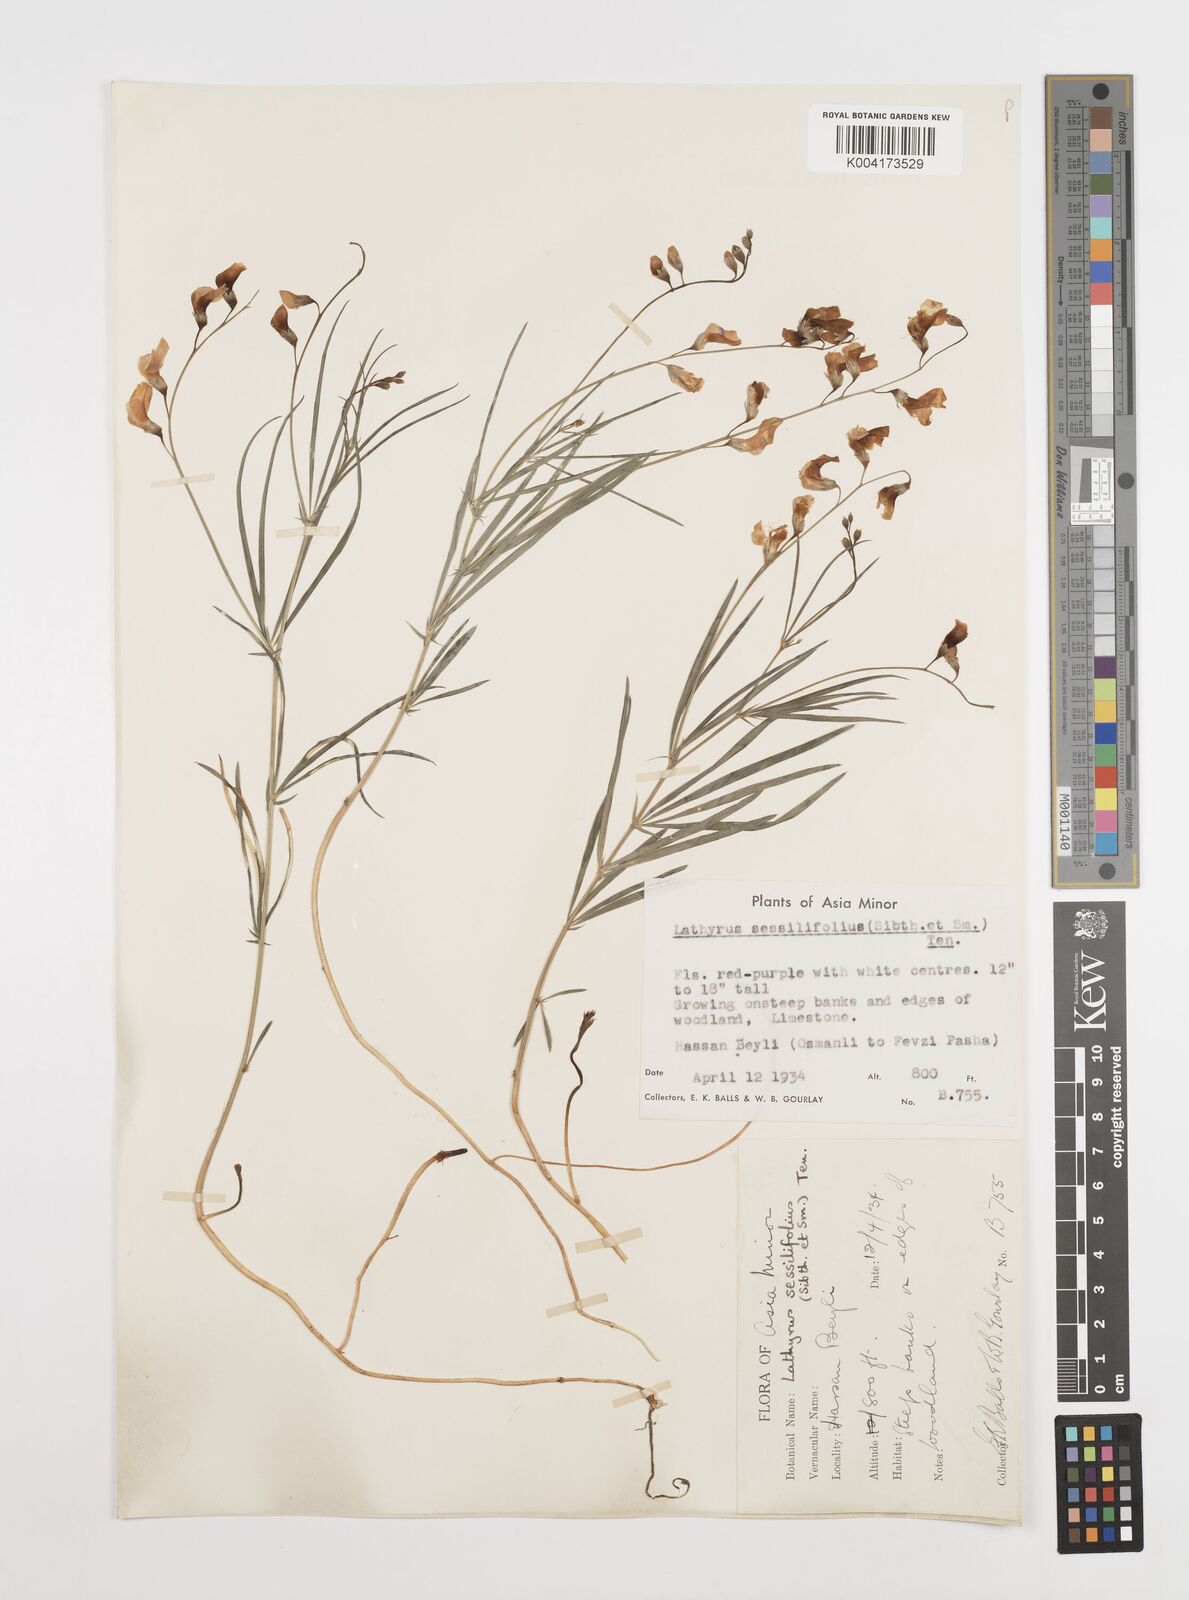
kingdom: Plantae
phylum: Tracheophyta
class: Magnoliopsida
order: Fabales
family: Fabaceae
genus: Lathyrus
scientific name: Lathyrus spathulatus
